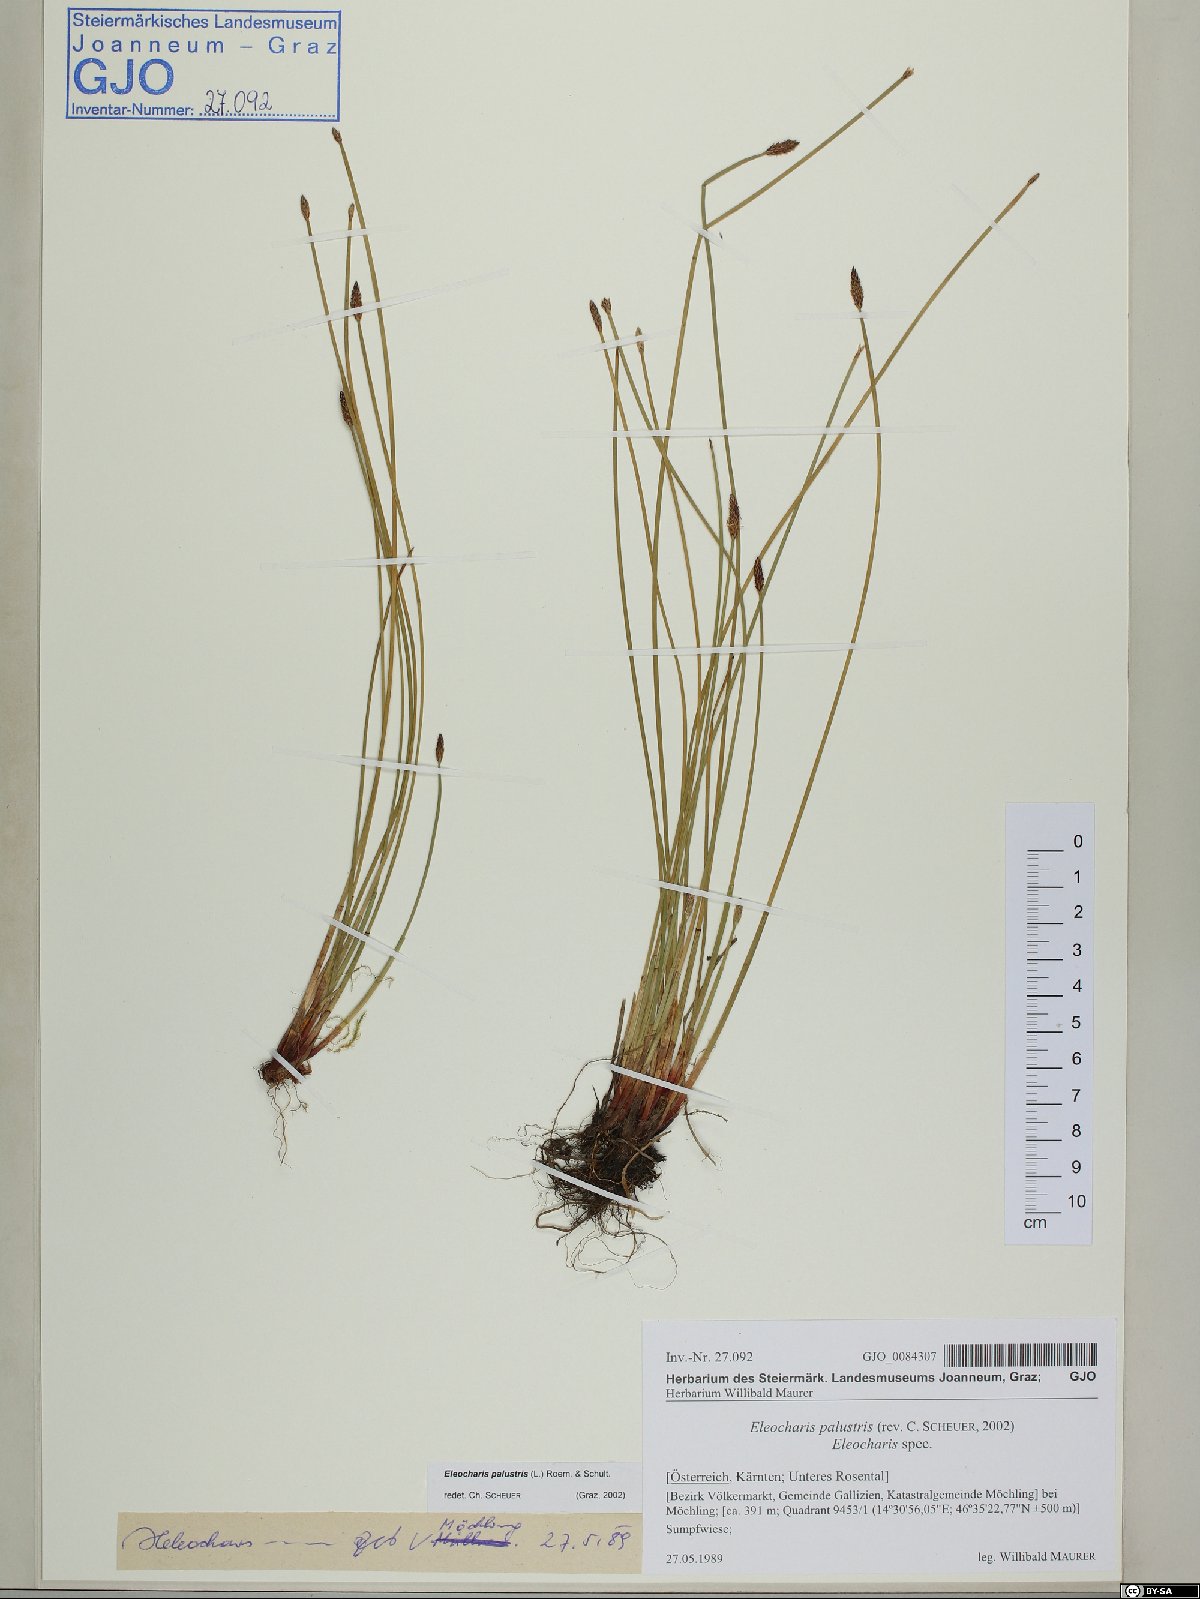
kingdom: Plantae
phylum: Tracheophyta
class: Liliopsida
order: Poales
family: Cyperaceae
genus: Eleocharis
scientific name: Eleocharis palustris
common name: Common spike-rush
